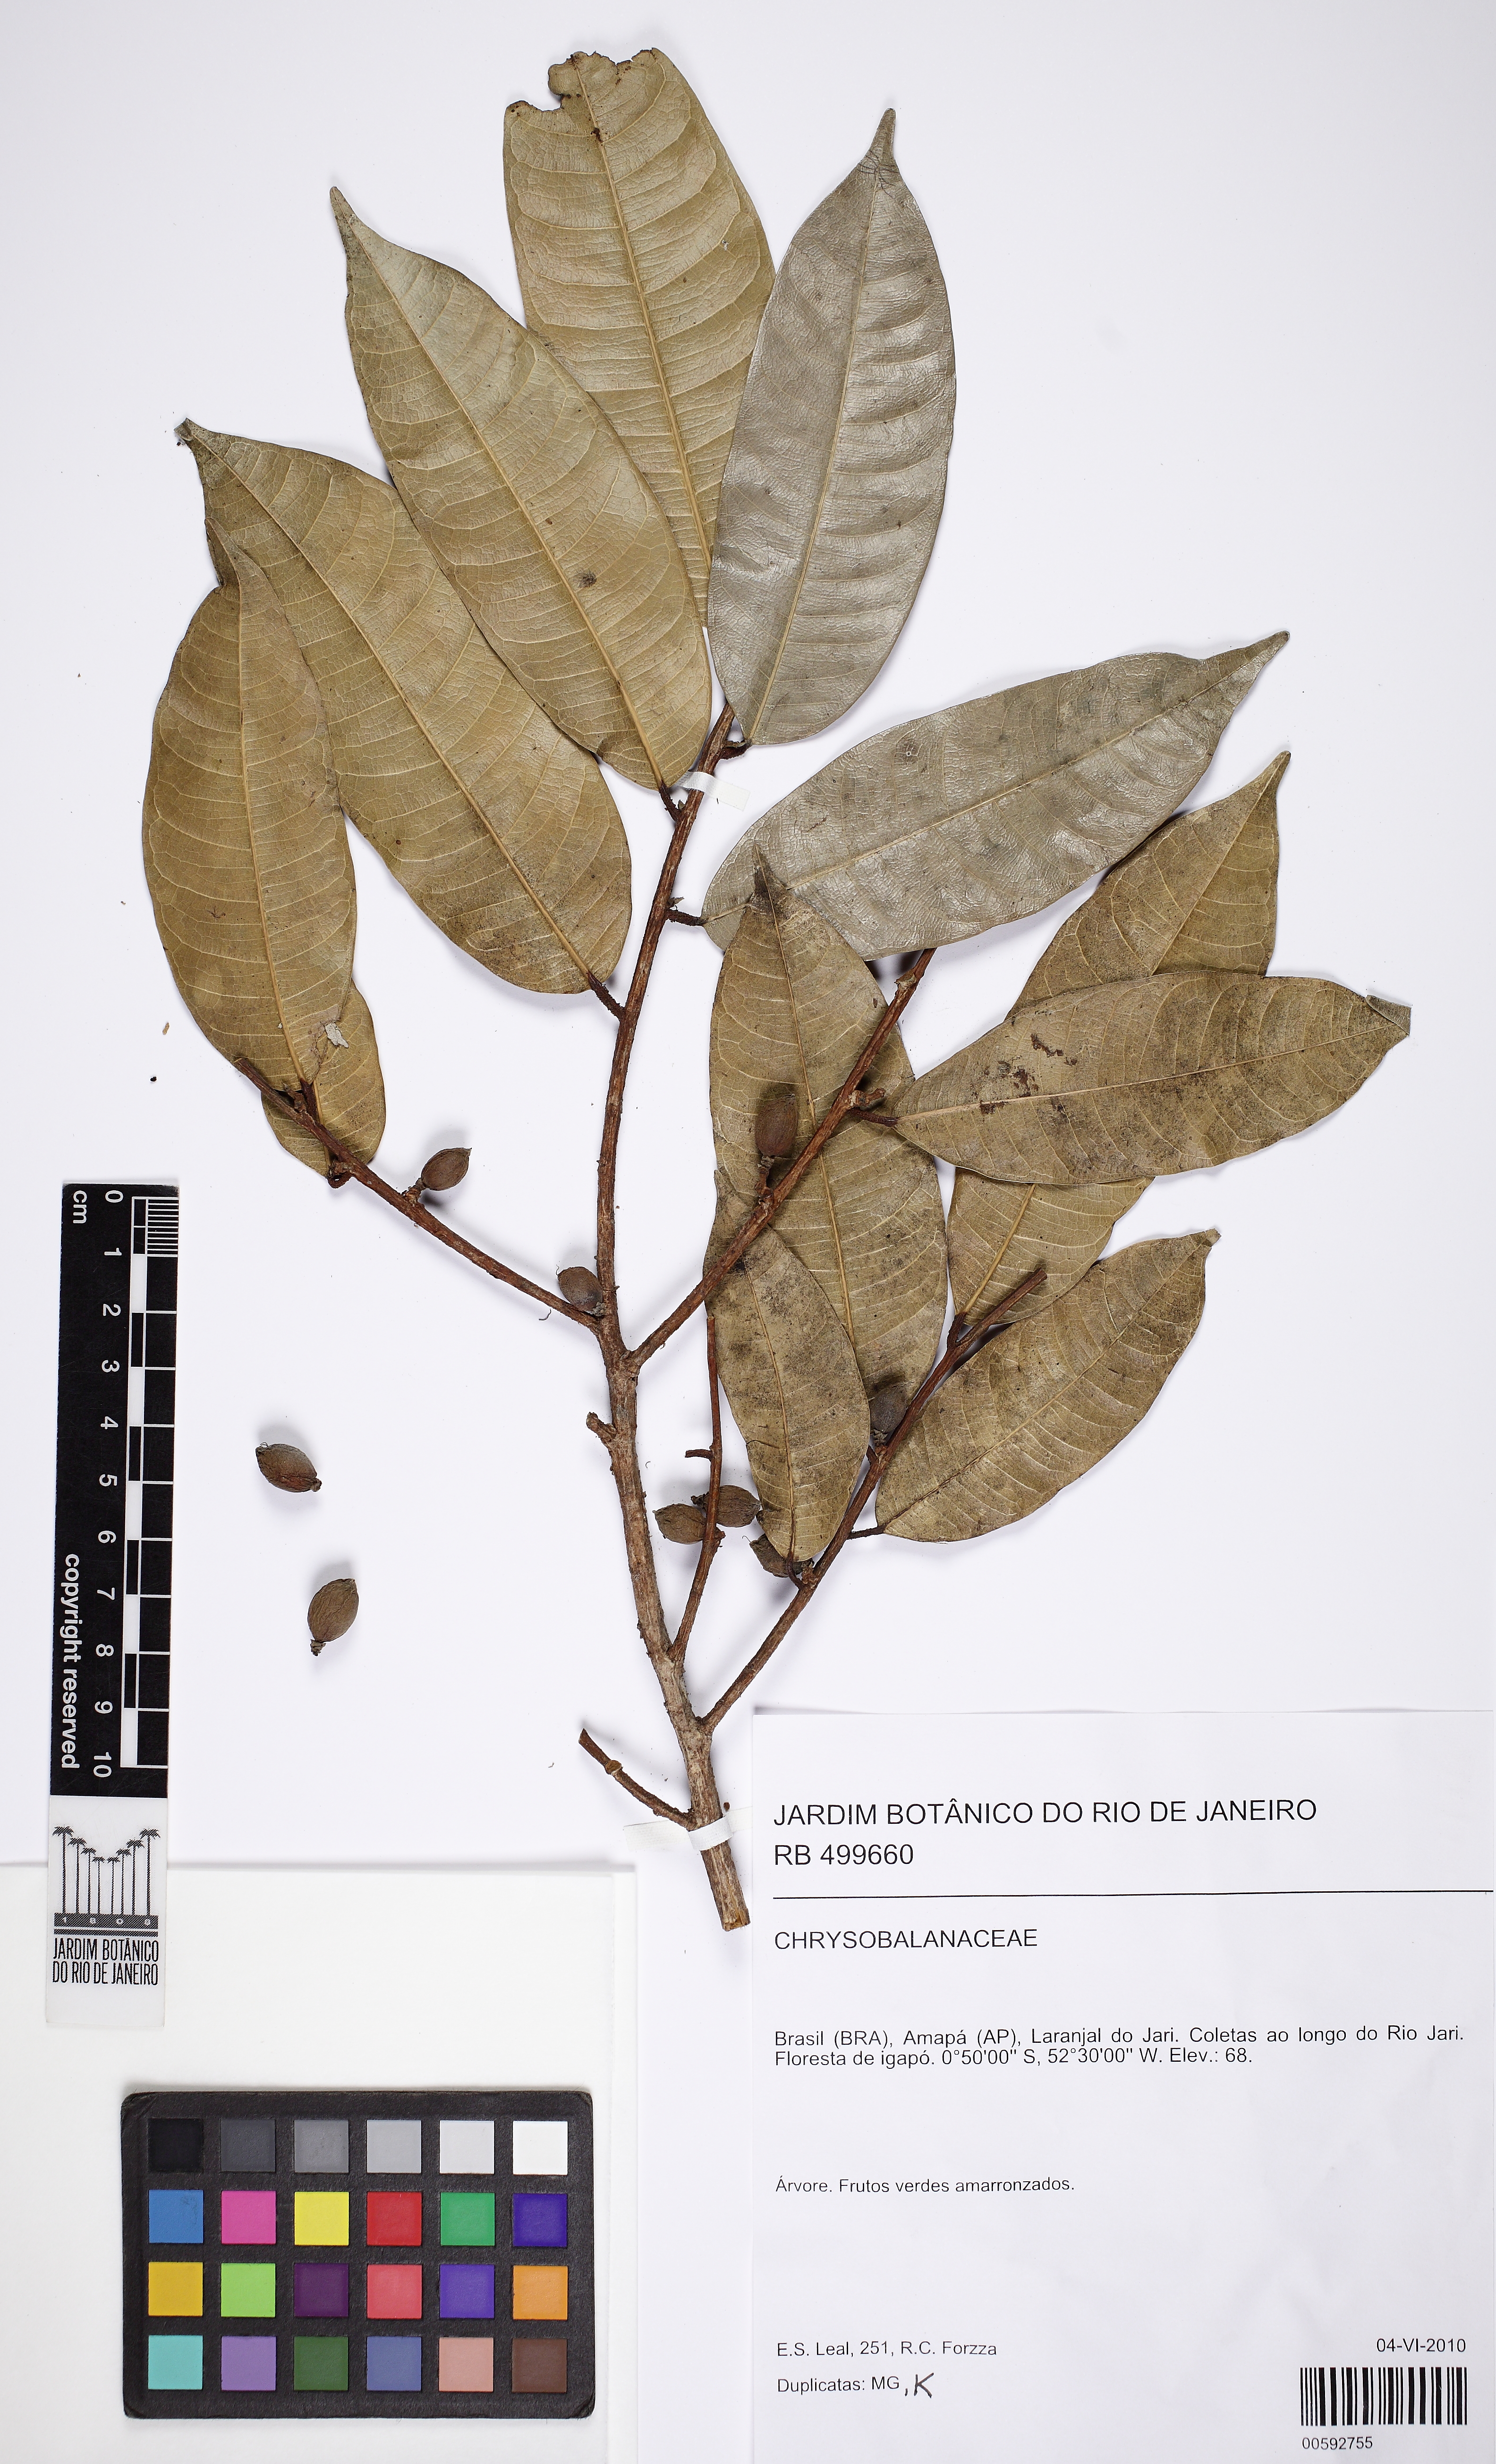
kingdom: Plantae
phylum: Tracheophyta
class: Magnoliopsida
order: Rosales
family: Moraceae
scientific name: Moraceae
